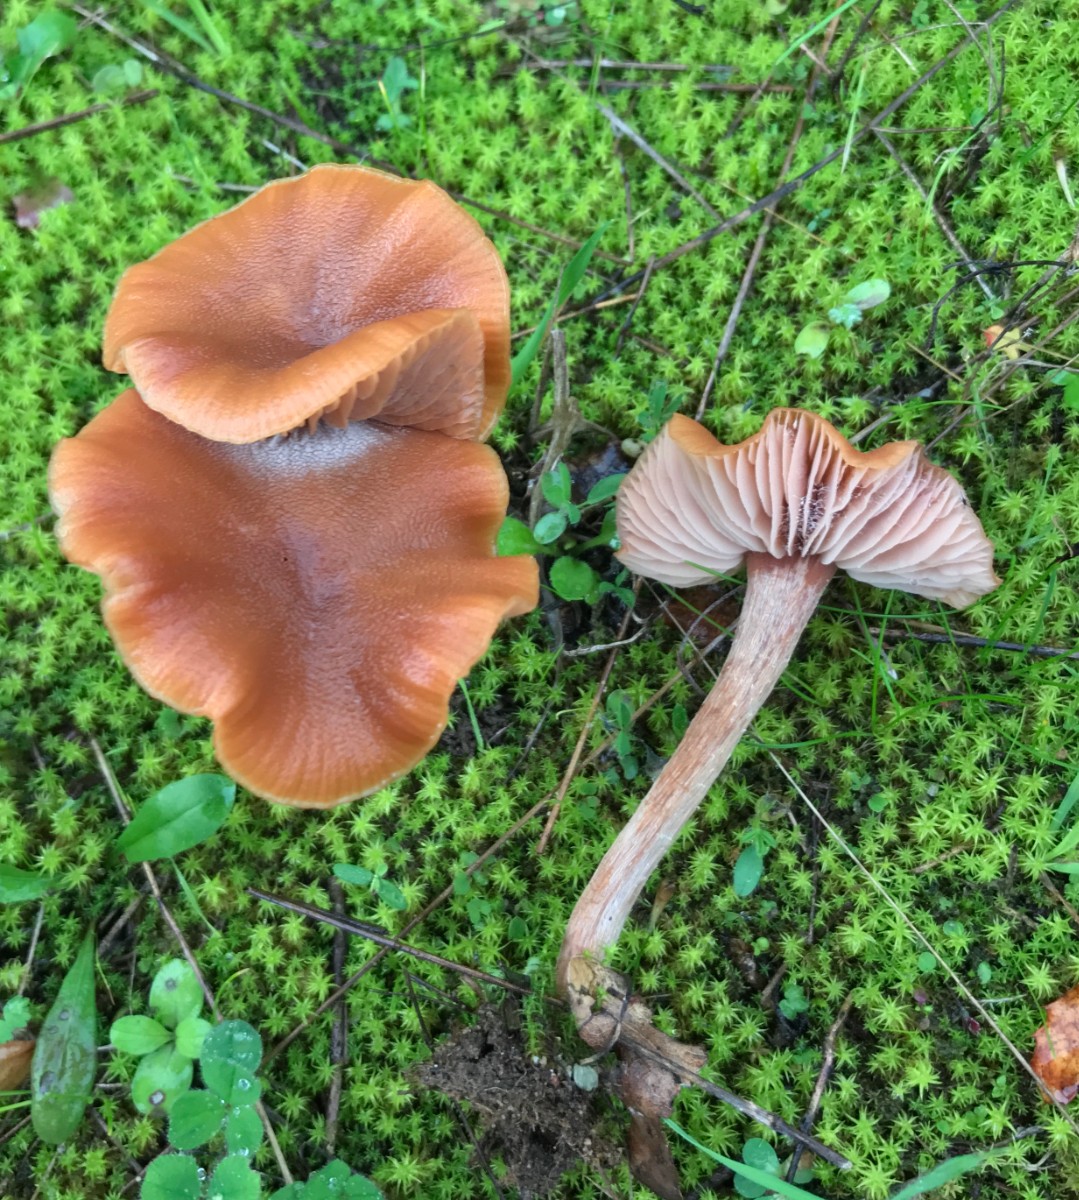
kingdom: Fungi
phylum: Basidiomycota
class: Agaricomycetes
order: Agaricales
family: Hydnangiaceae
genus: Laccaria
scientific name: Laccaria laccata
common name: rød ametysthat
